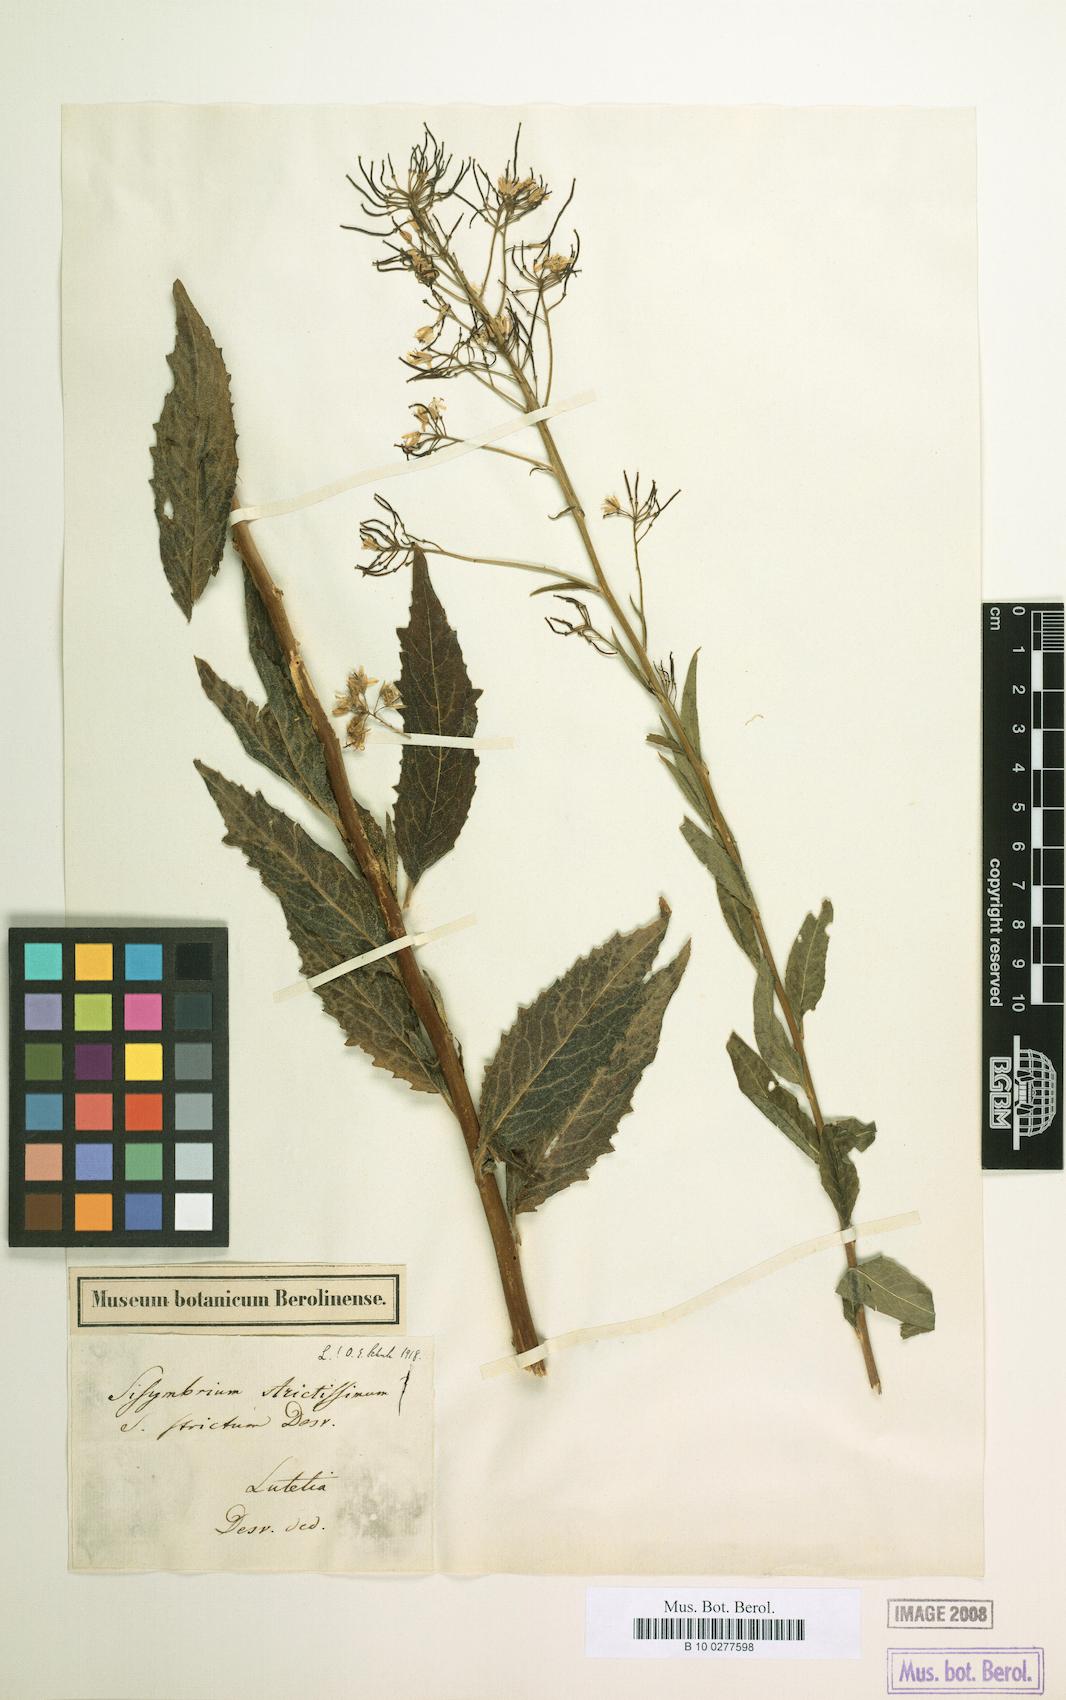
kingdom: Plantae
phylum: Tracheophyta
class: Magnoliopsida
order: Brassicales
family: Brassicaceae
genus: Sisymbrium
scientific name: Sisymbrium strictissimum
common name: Perennial rocket
